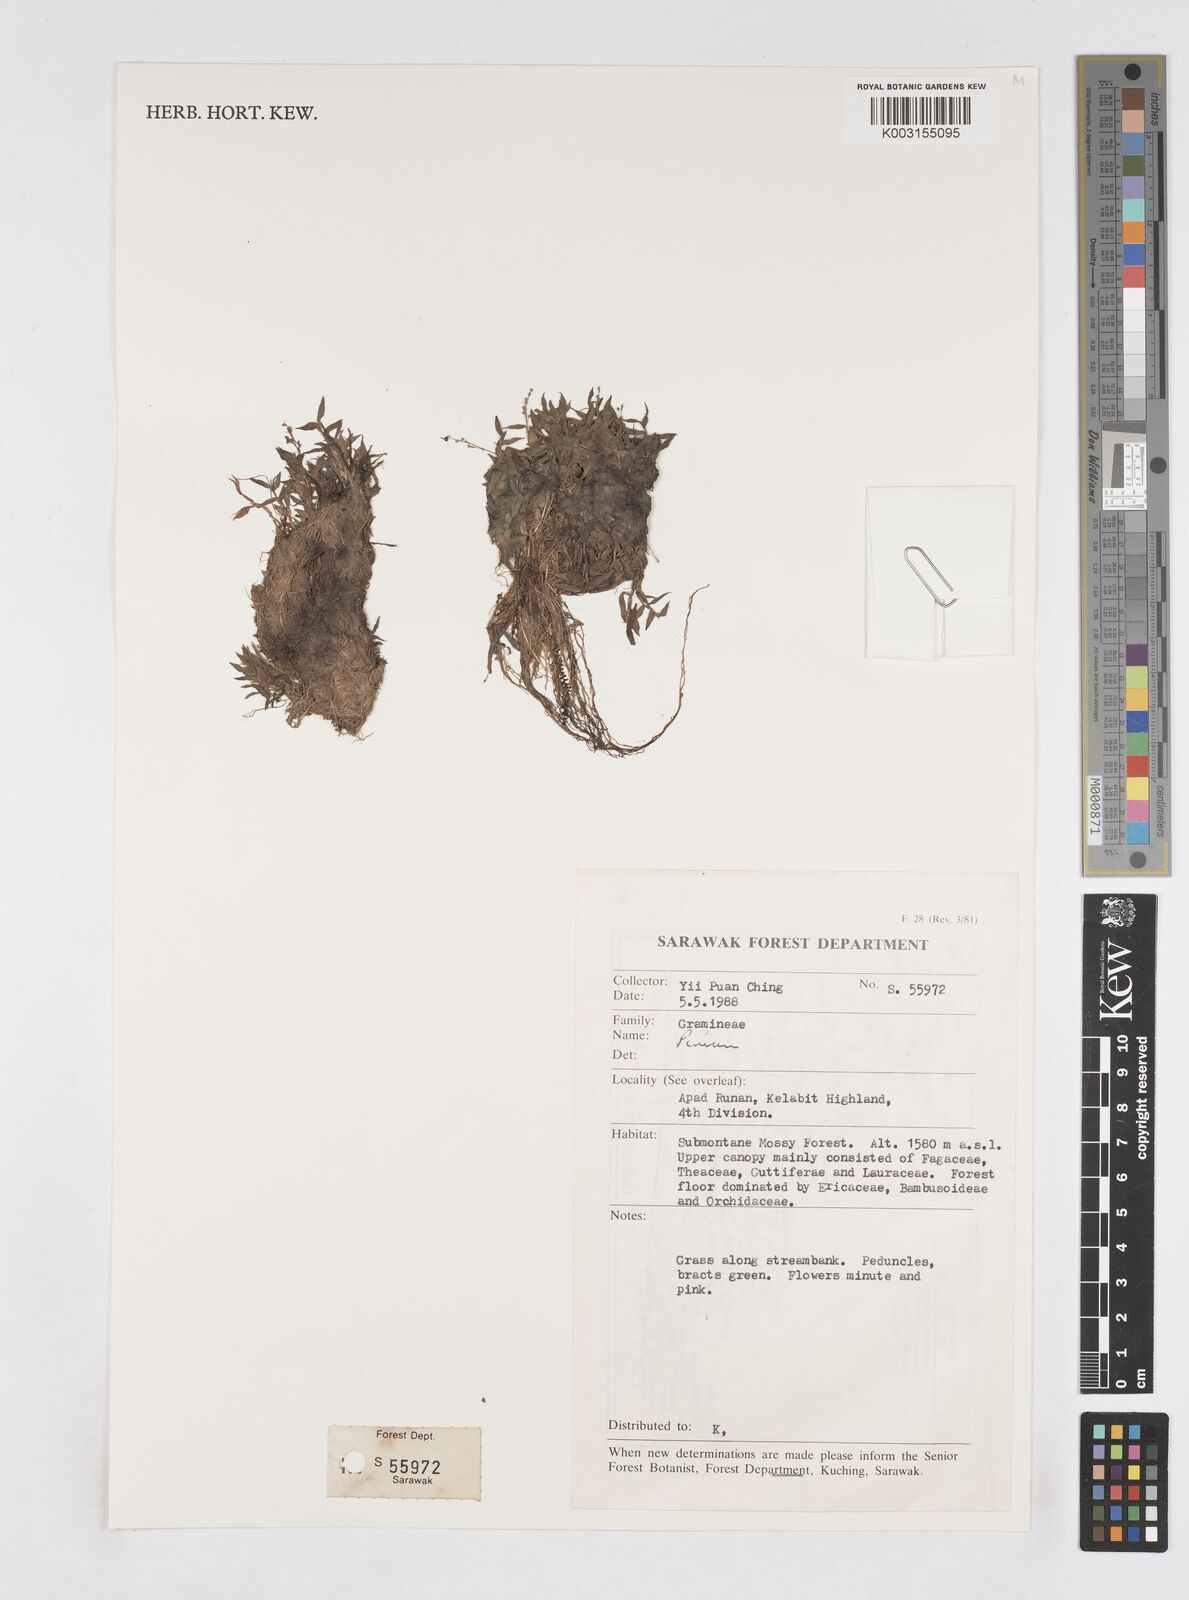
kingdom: Plantae
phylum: Tracheophyta
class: Liliopsida
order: Poales
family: Poaceae
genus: Isachne
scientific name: Isachne
